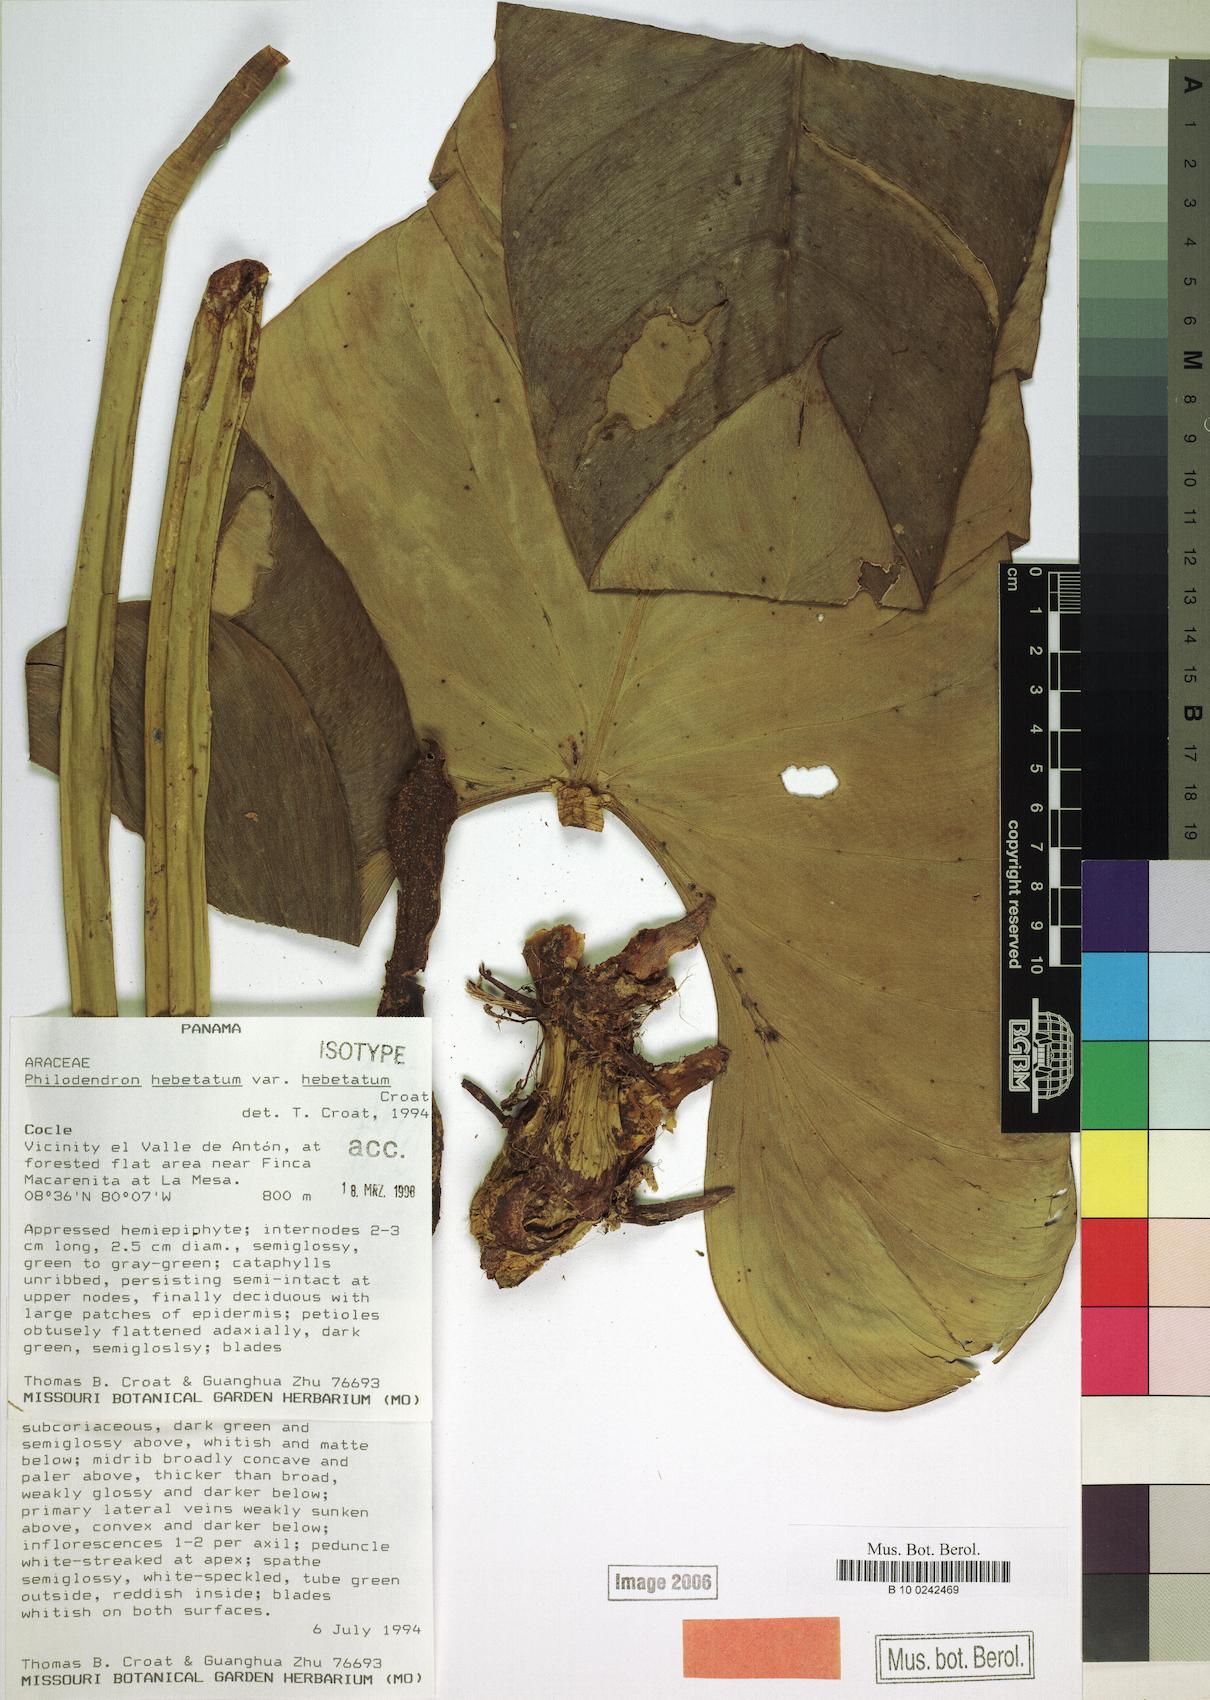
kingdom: Plantae
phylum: Tracheophyta
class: Liliopsida
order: Alismatales
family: Araceae
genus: Philodendron
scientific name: Philodendron hebetatum
